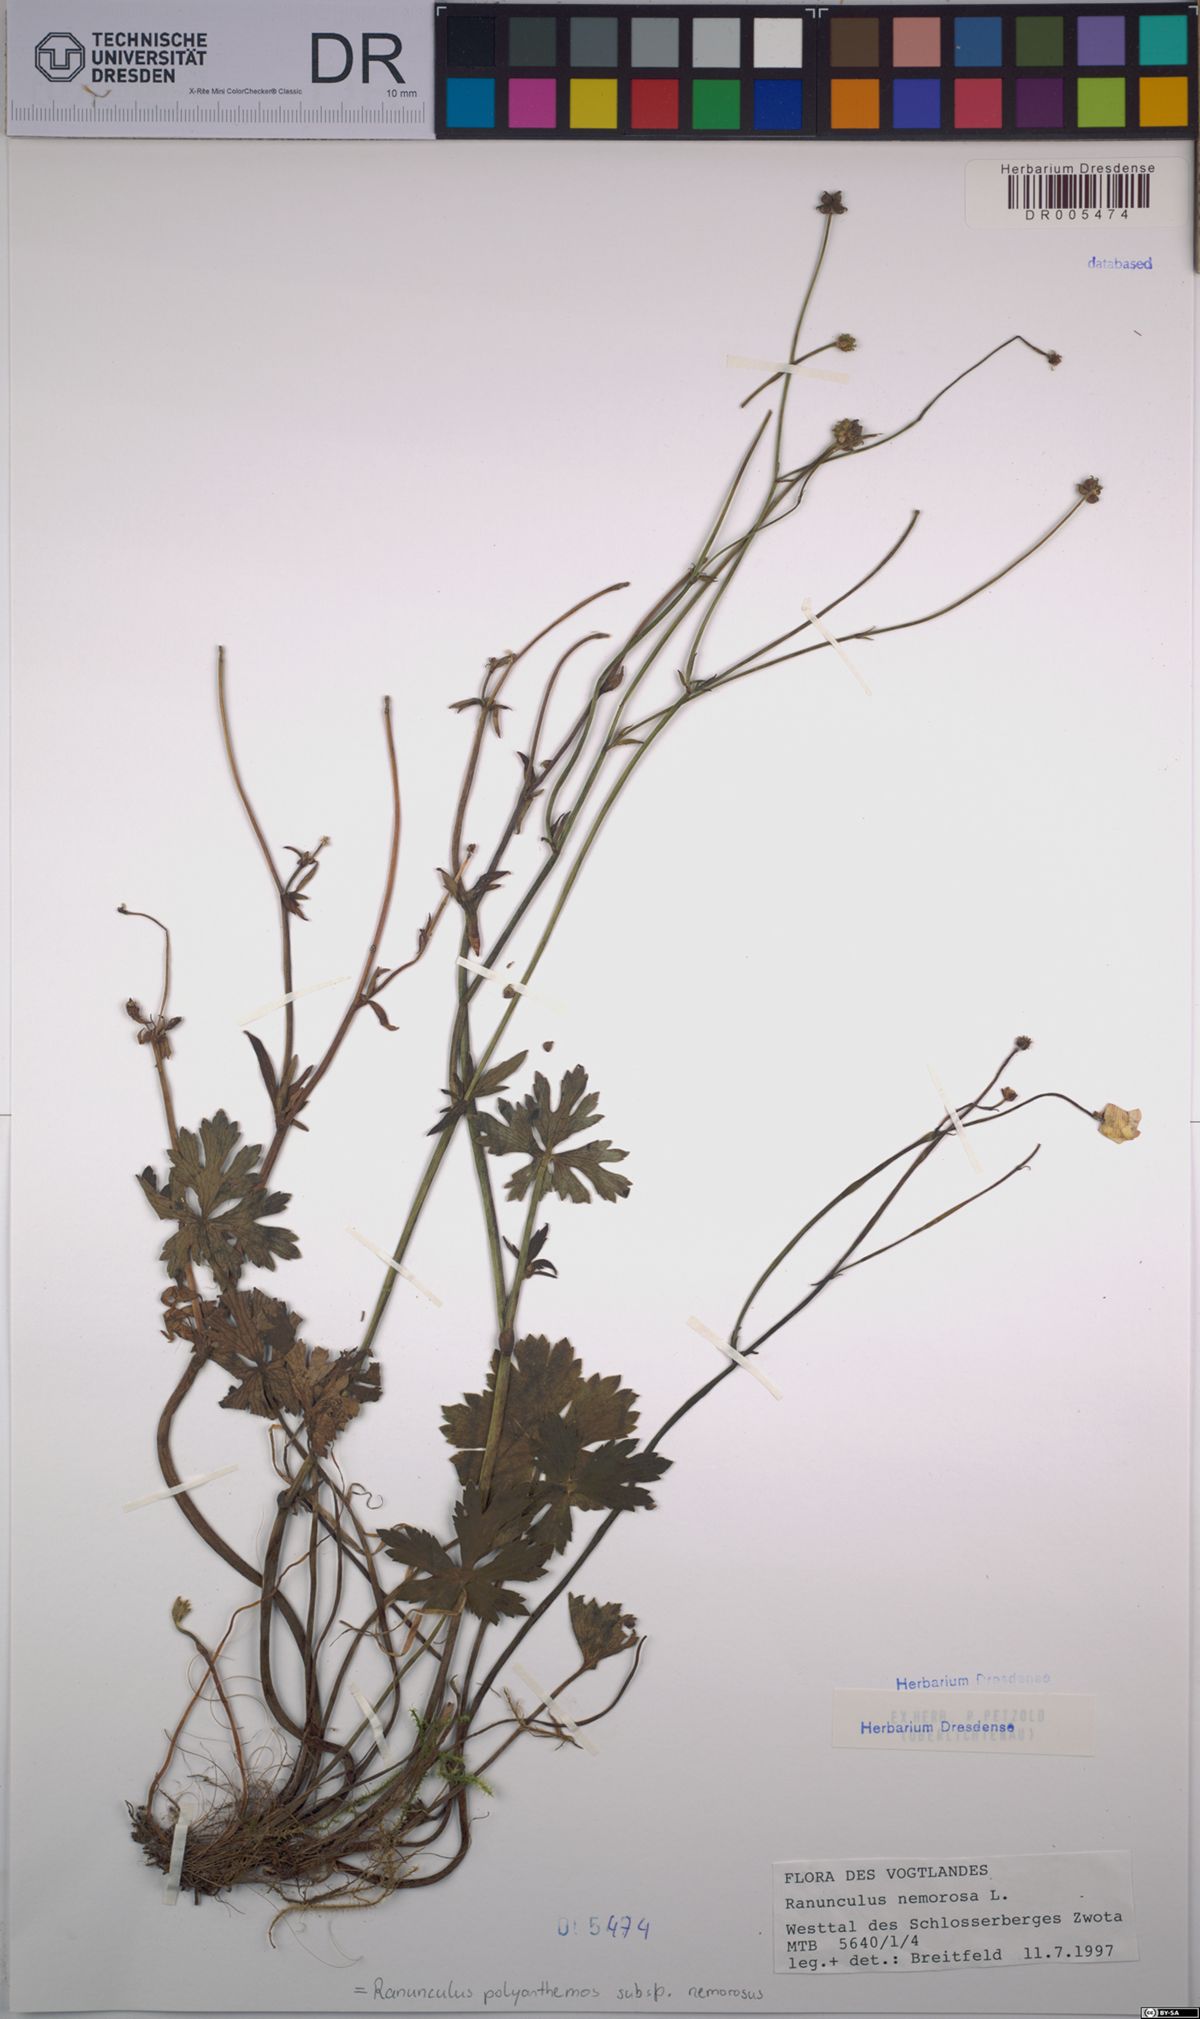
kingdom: Plantae
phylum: Tracheophyta
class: Magnoliopsida
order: Ranunculales
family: Ranunculaceae
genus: Ranunculus
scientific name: Ranunculus polyanthemos
